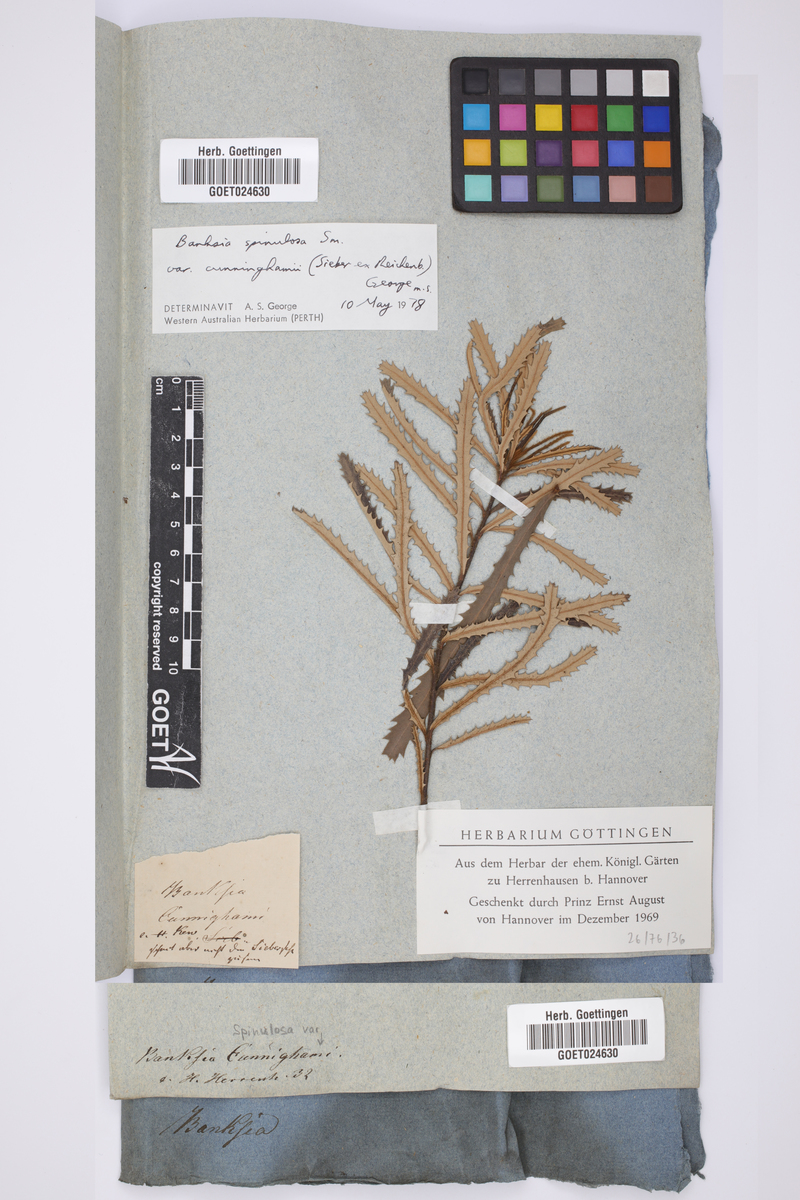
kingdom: Plantae
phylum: Tracheophyta
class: Magnoliopsida
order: Proteales
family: Proteaceae
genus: Banksia
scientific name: Banksia spinulosa
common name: Hairpin banksia
